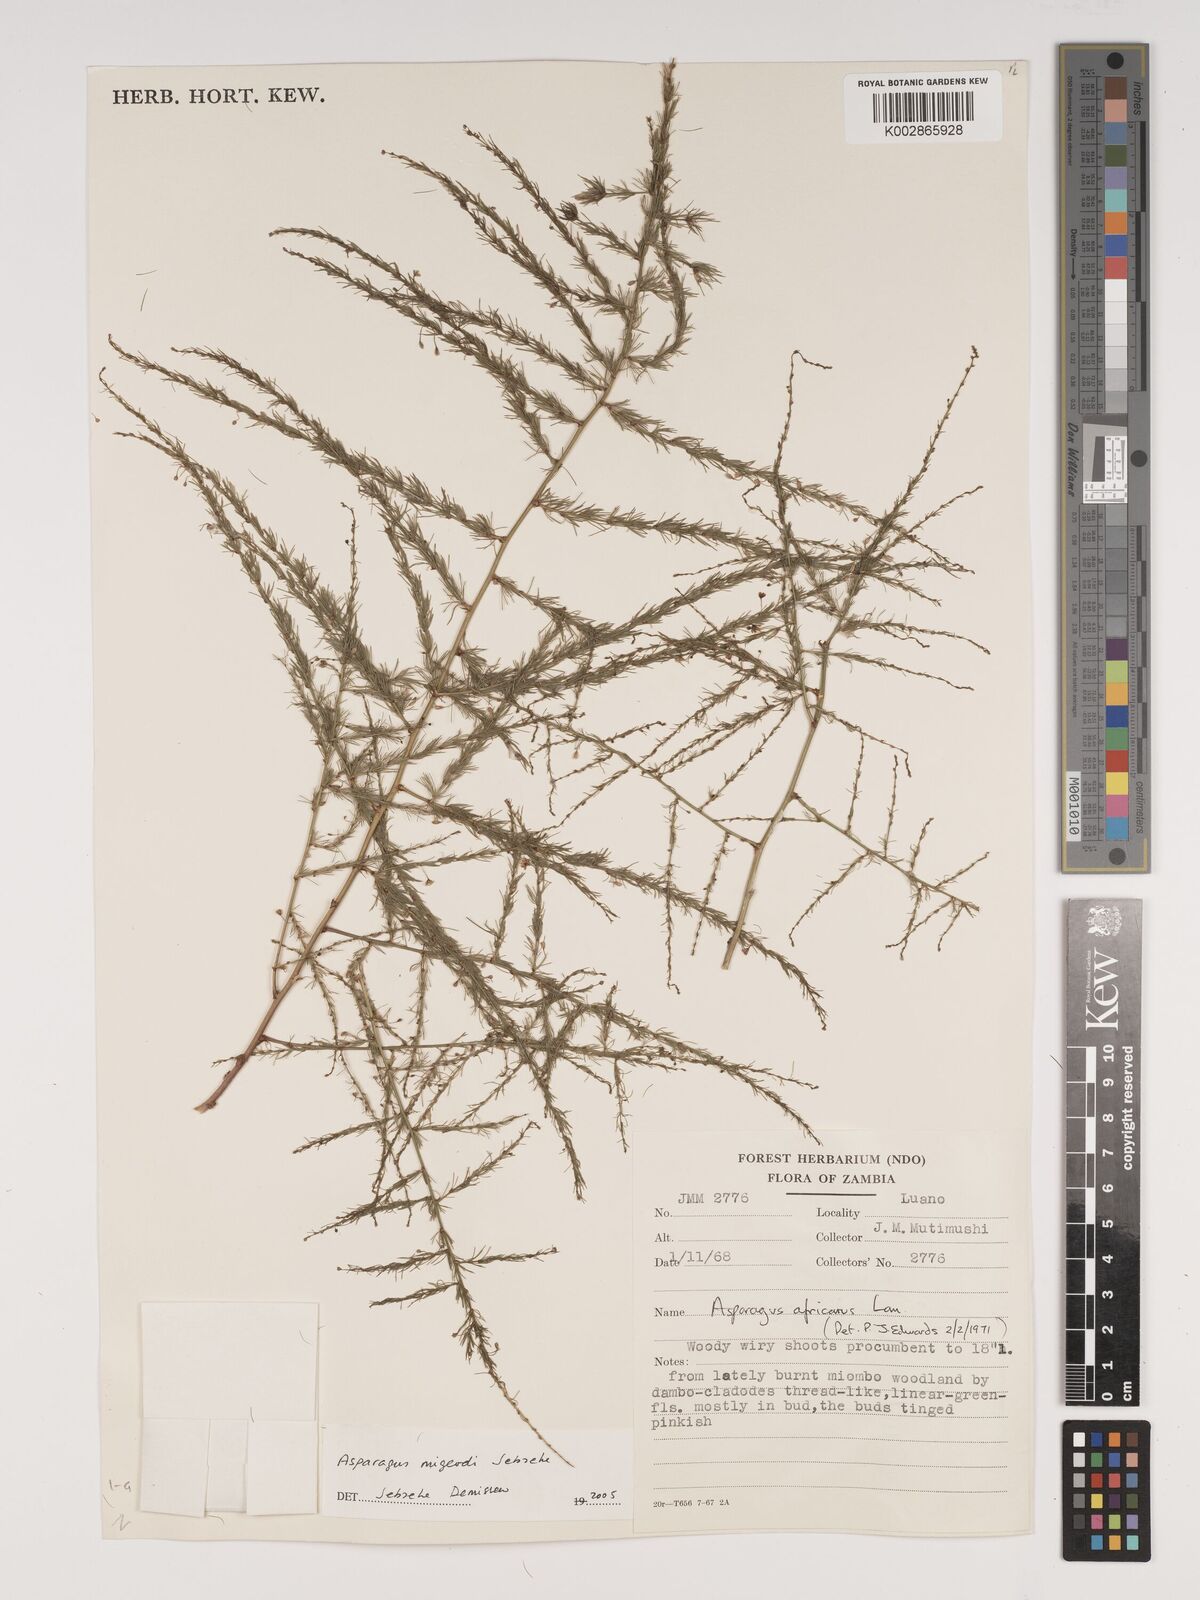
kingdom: Plantae
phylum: Tracheophyta
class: Liliopsida
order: Asparagales
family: Asparagaceae
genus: Asparagus
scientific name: Asparagus migeodii
